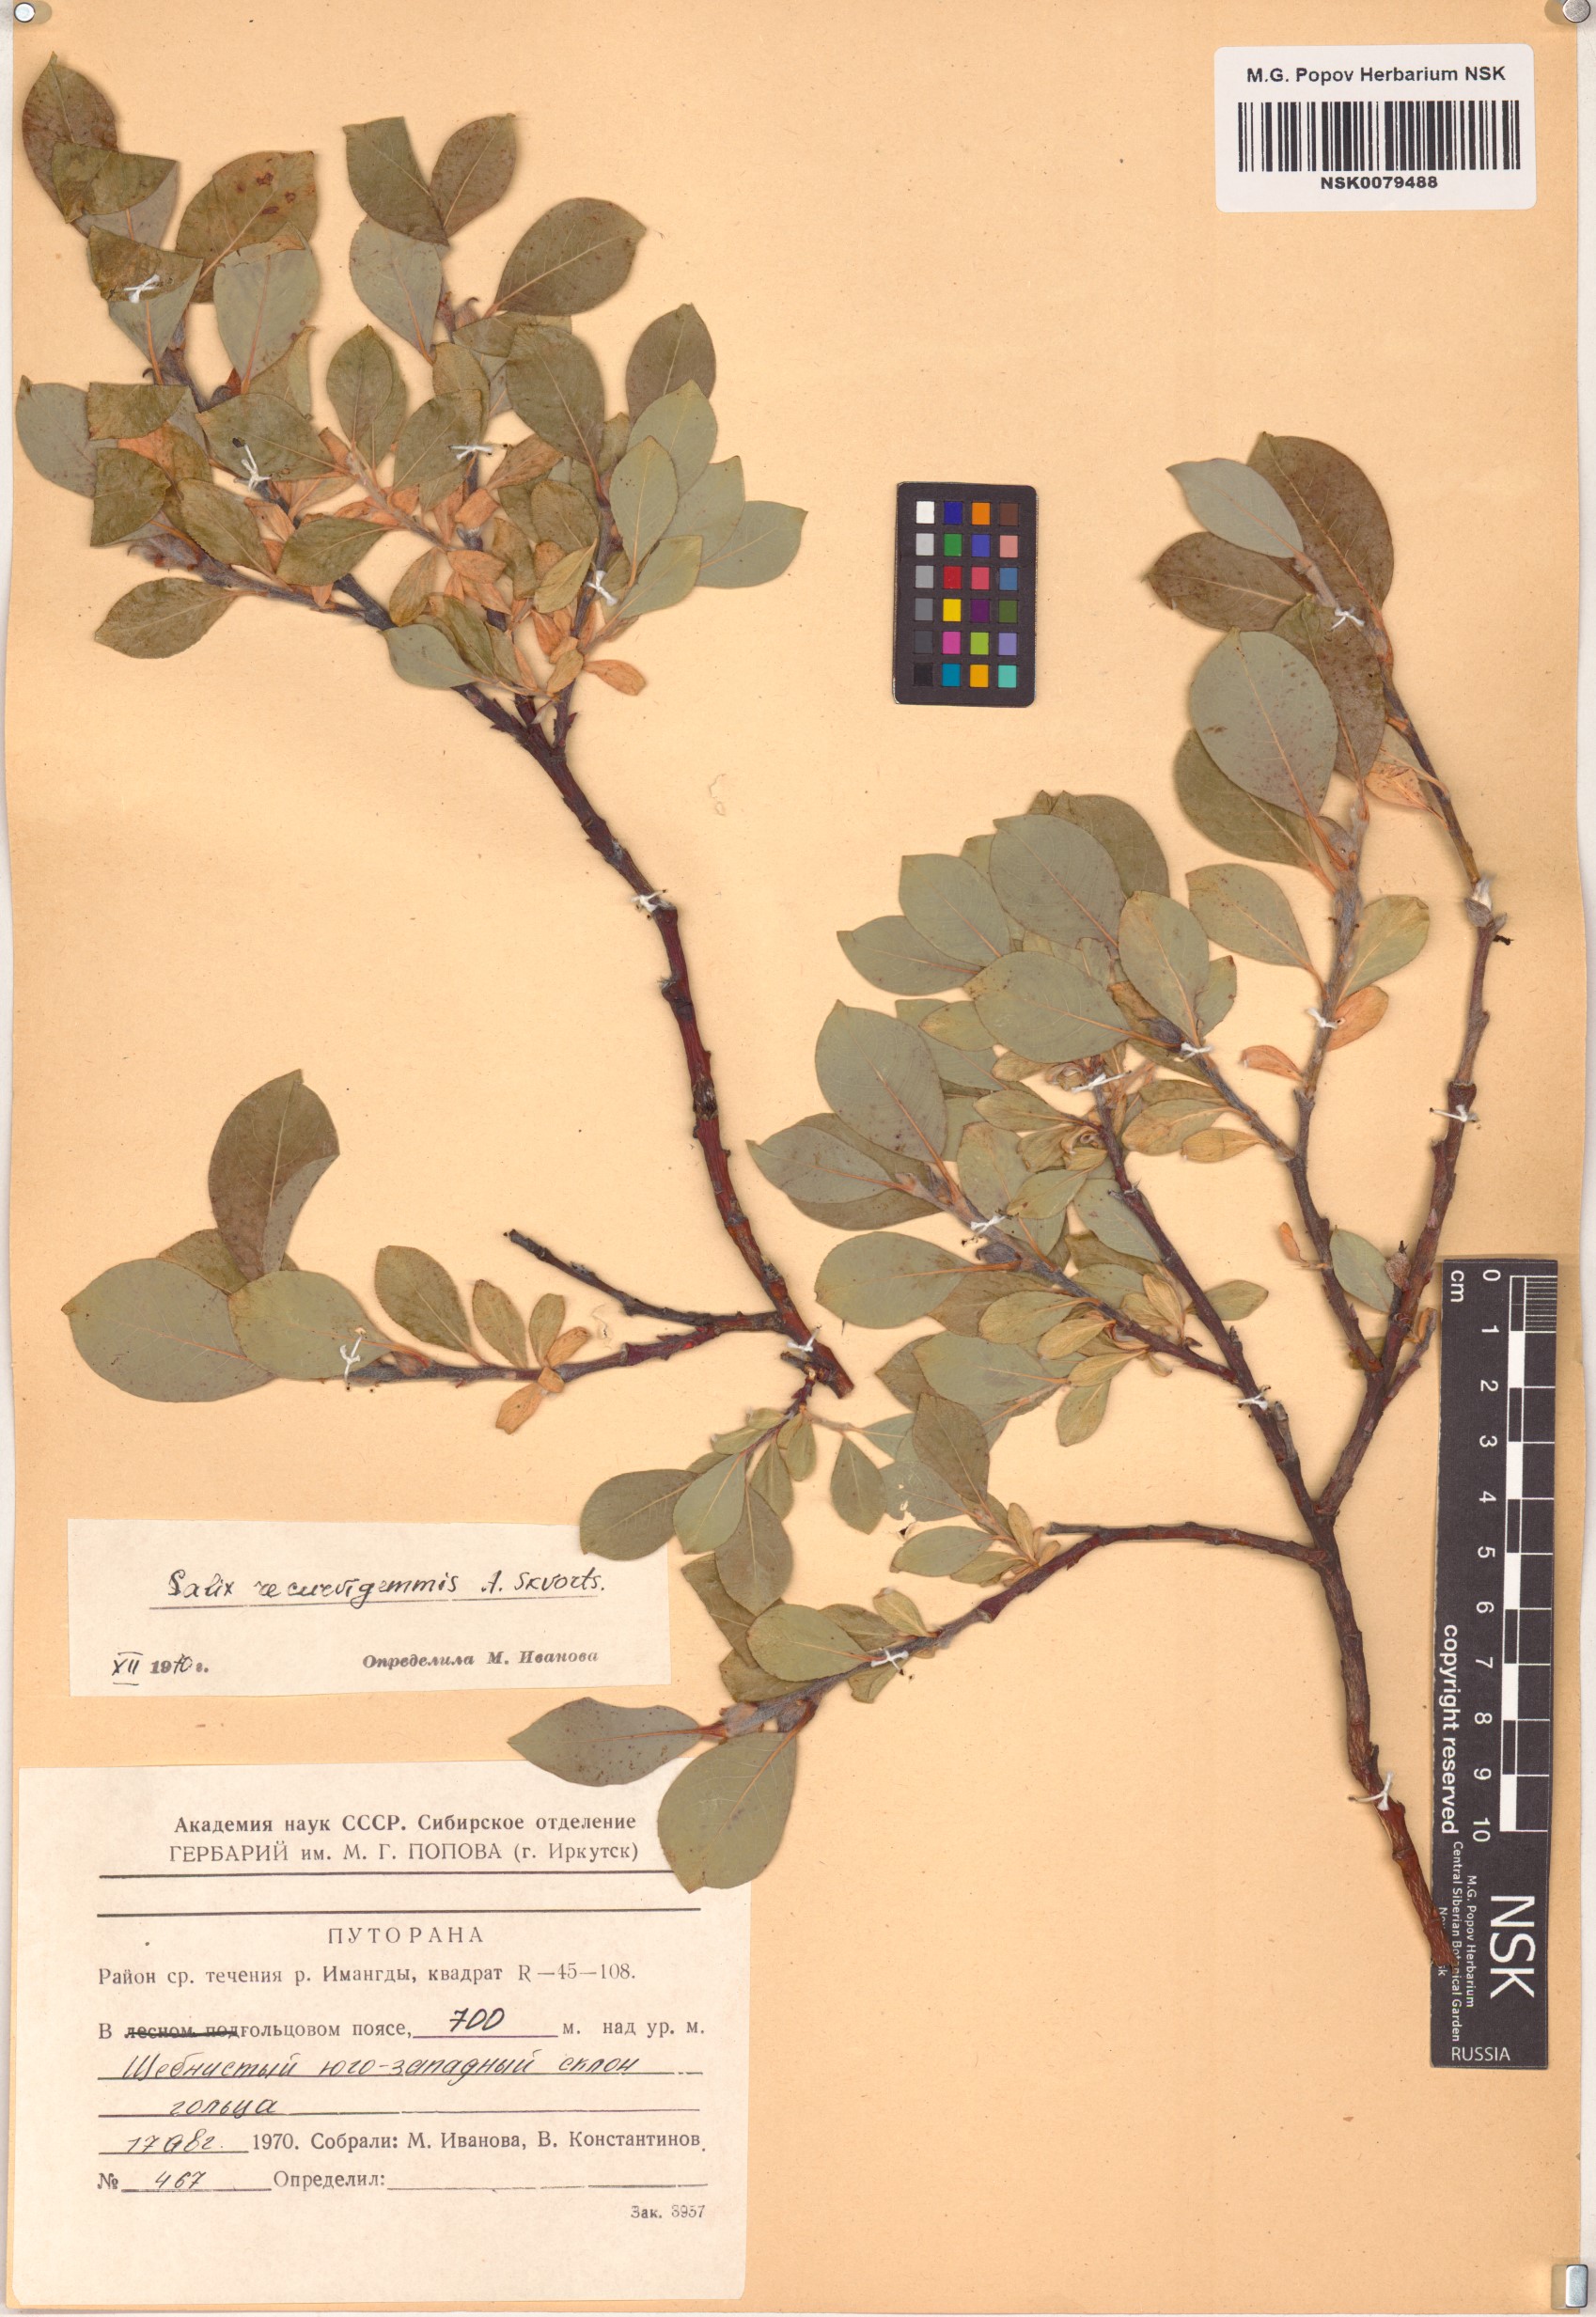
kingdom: Plantae
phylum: Tracheophyta
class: Magnoliopsida
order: Malpighiales
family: Salicaceae
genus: Salix
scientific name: Salix recurvigemmata
